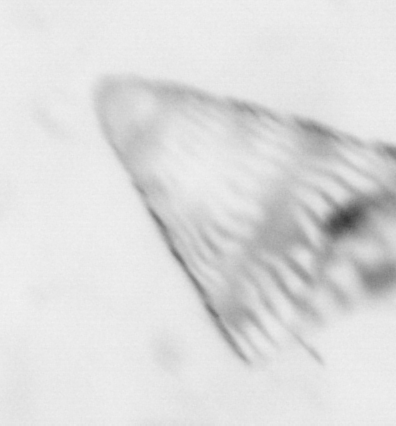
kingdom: Animalia
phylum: Chordata
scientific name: Chordata
